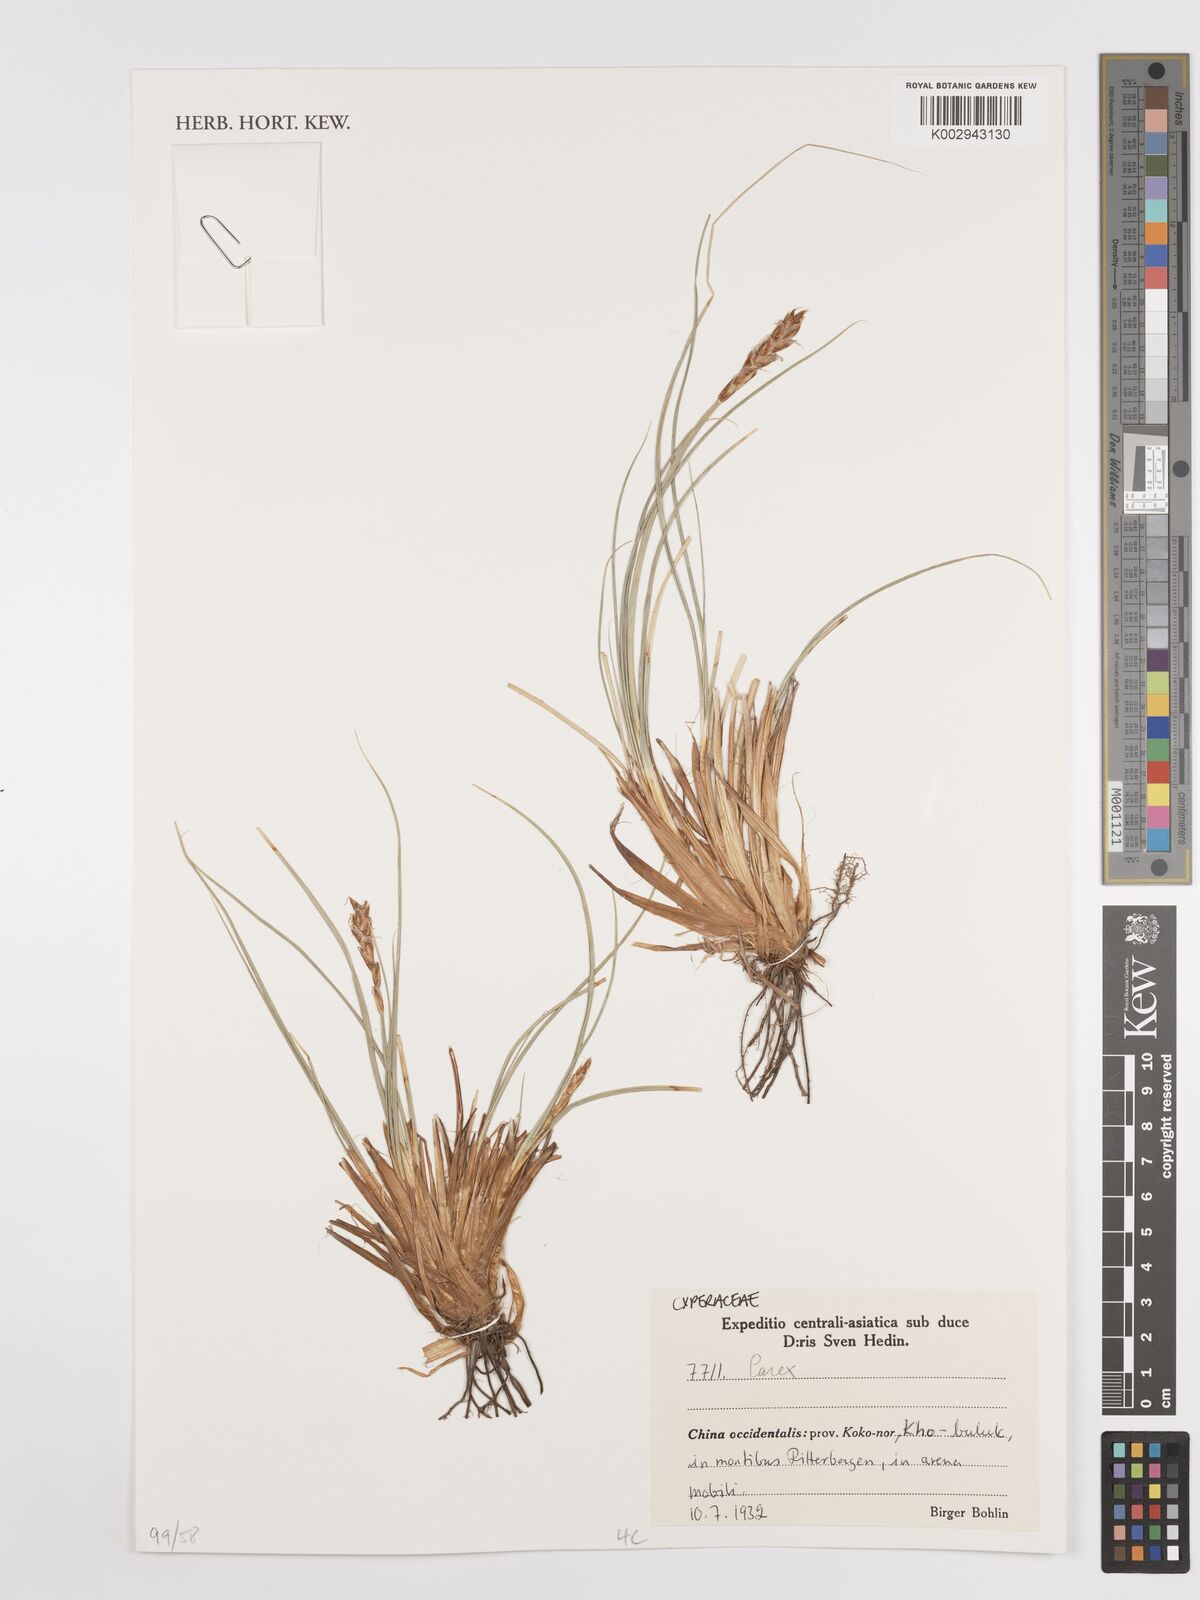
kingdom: Plantae
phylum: Tracheophyta
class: Liliopsida
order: Poales
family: Cyperaceae
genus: Carex
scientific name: Carex
